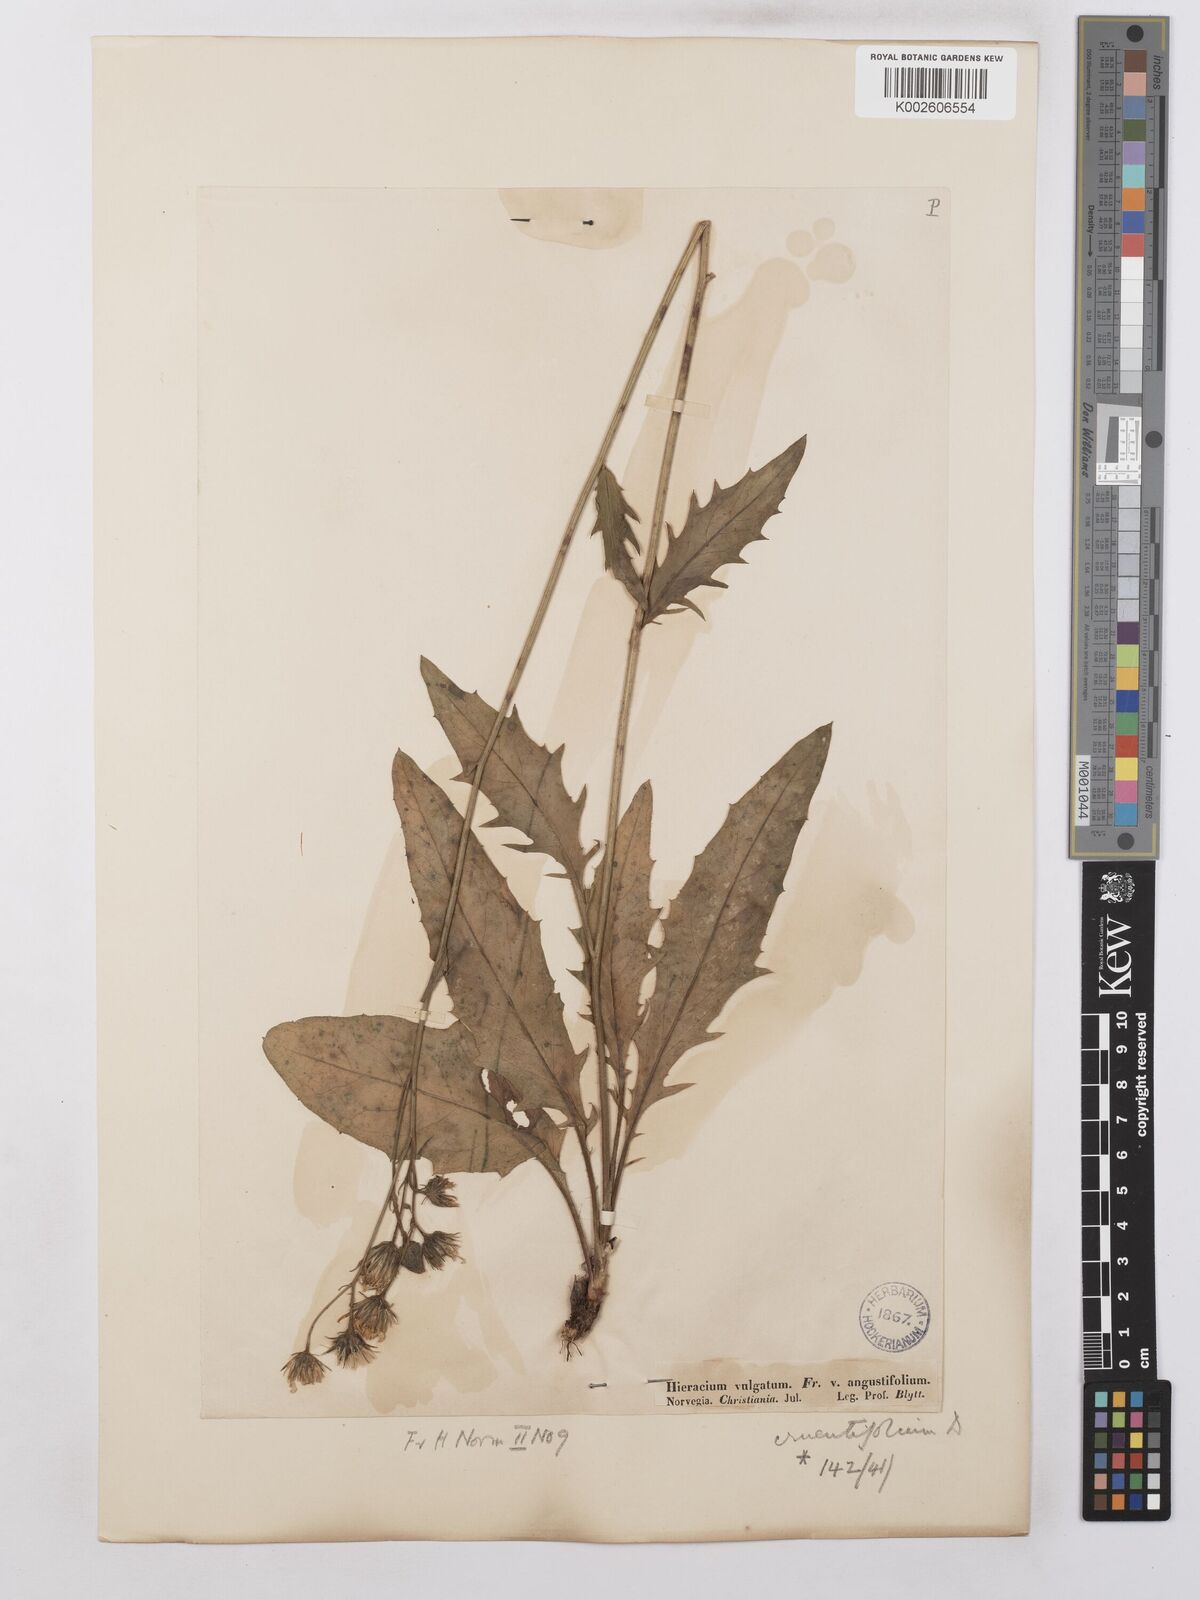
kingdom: Plantae
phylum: Tracheophyta
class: Magnoliopsida
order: Asterales
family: Asteraceae
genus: Hieracium
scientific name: Hieracium lachenalii
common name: Common hawkweed
